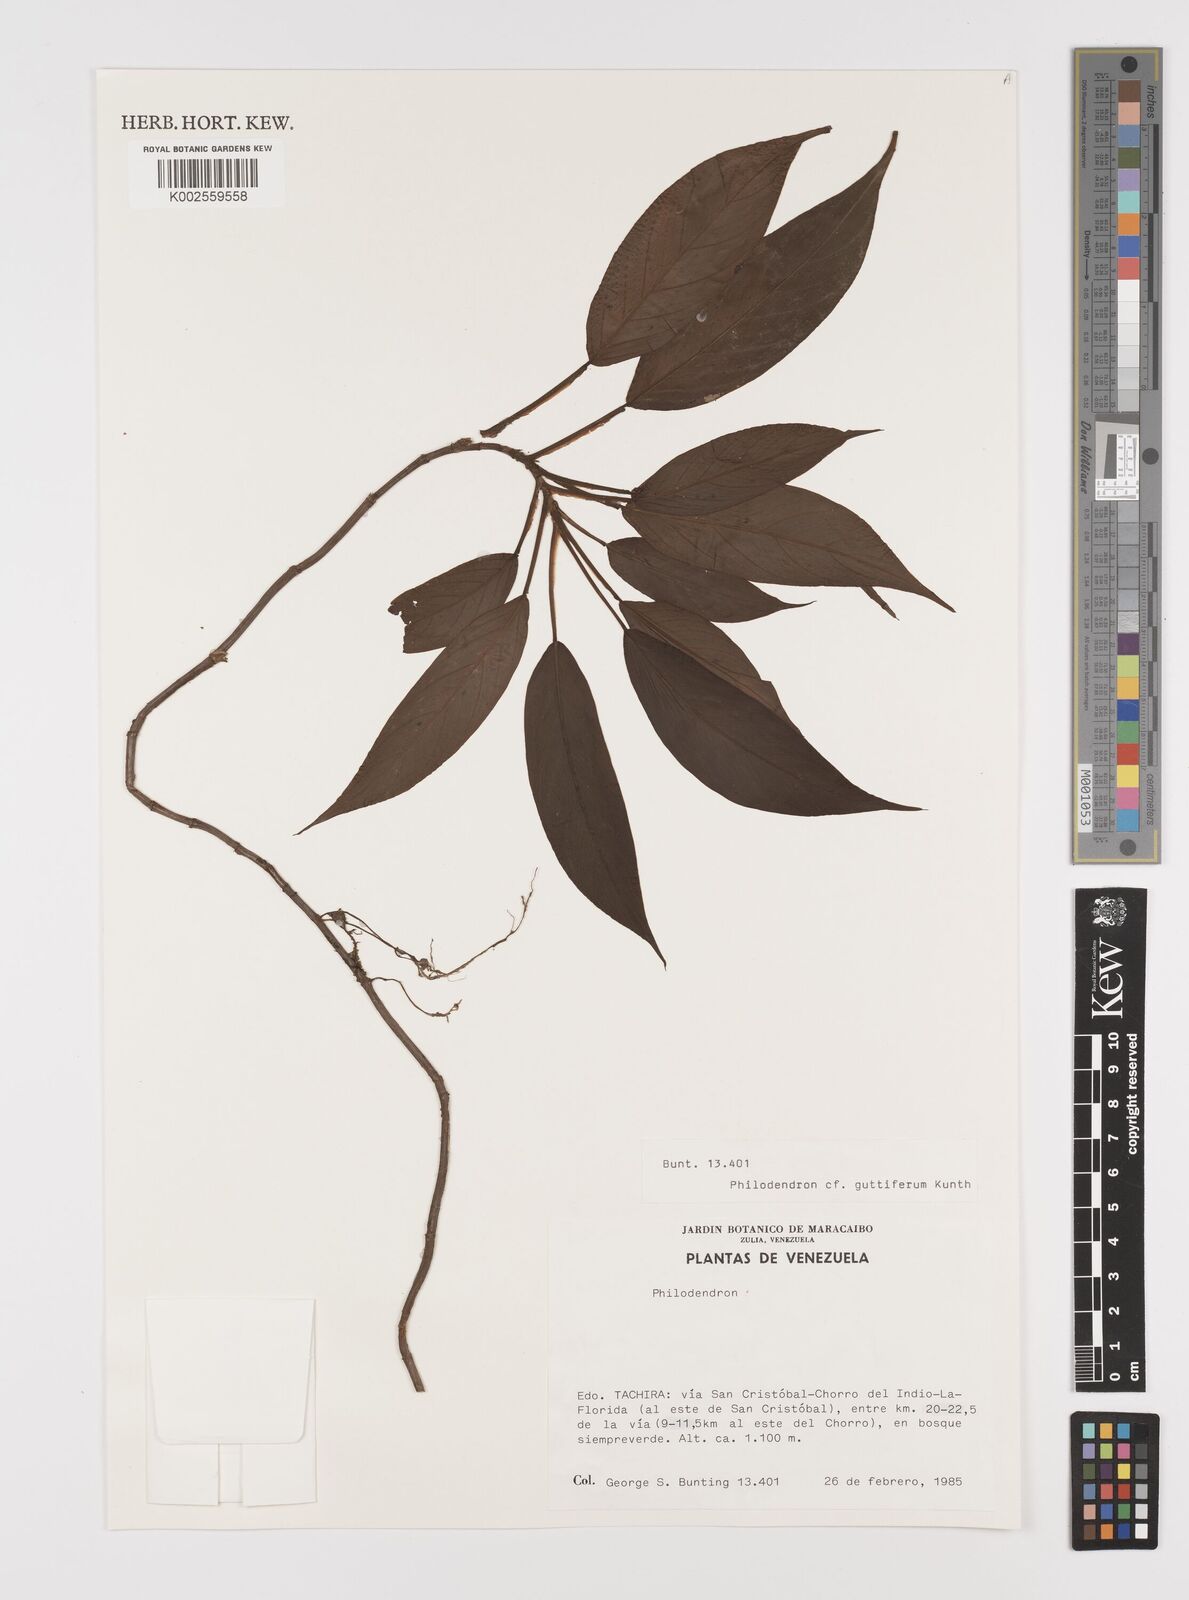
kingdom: Plantae
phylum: Tracheophyta
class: Liliopsida
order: Alismatales
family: Araceae
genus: Philodendron
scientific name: Philodendron guttiferum
